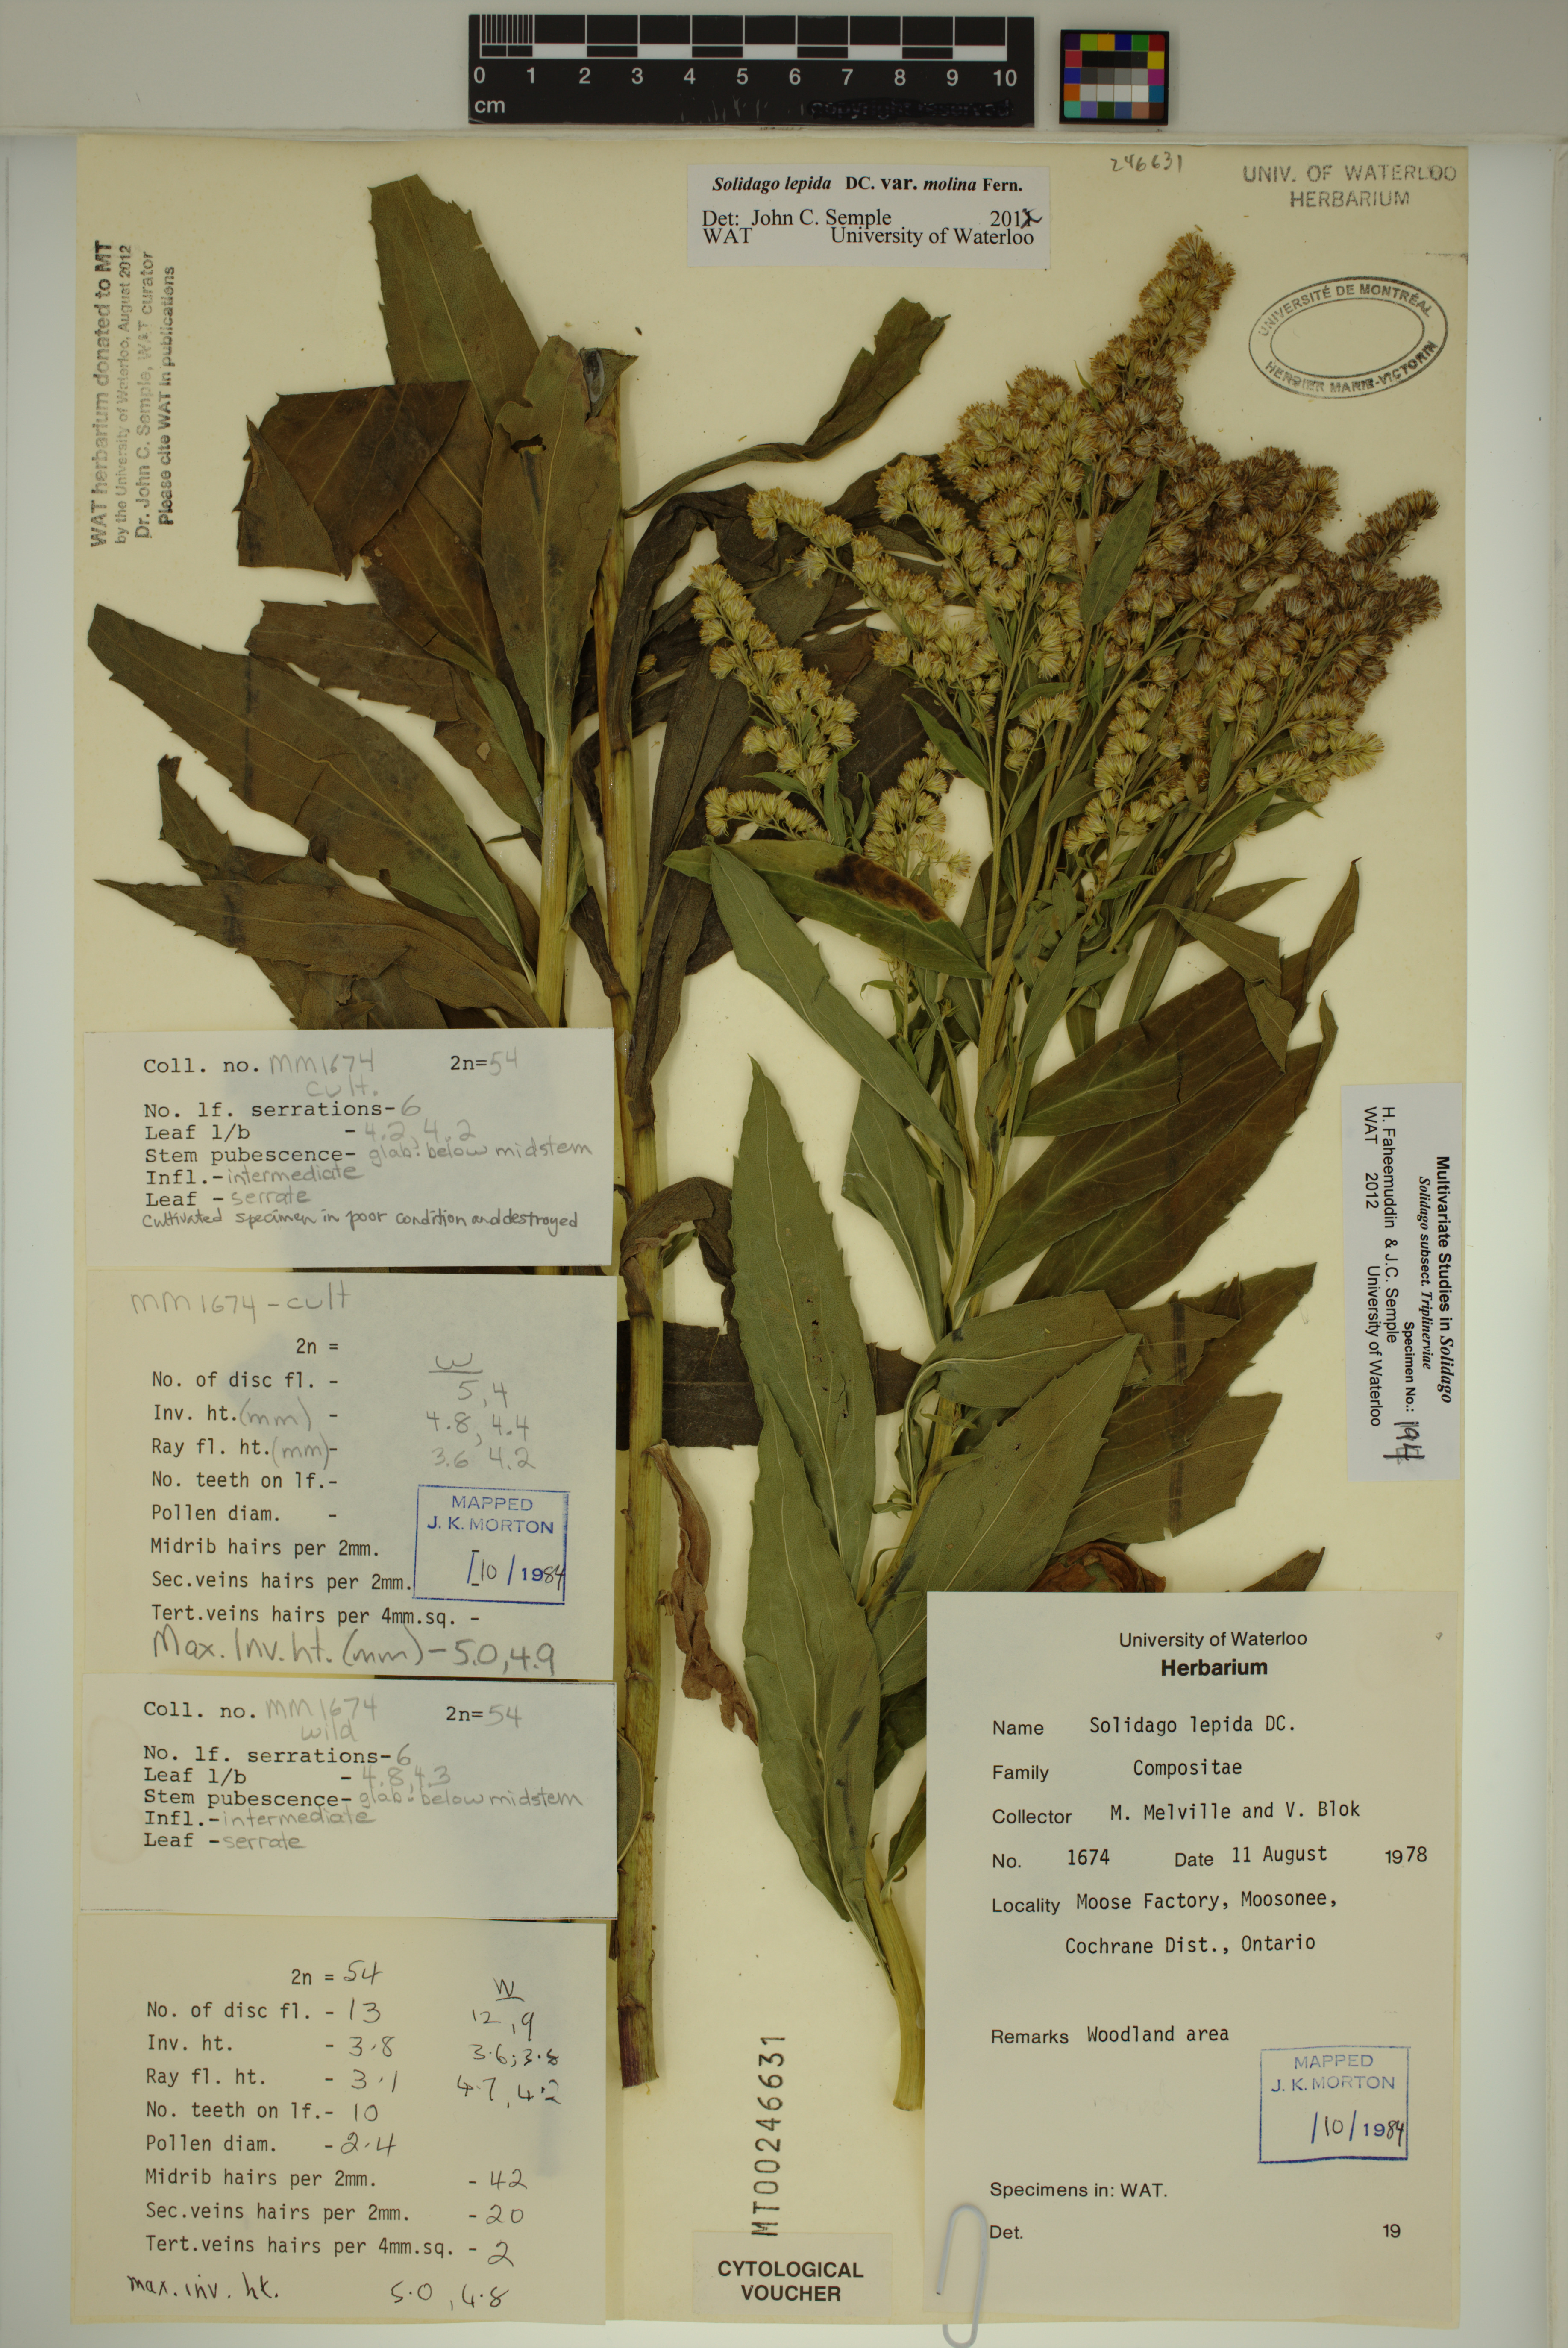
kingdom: Plantae
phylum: Tracheophyta
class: Magnoliopsida
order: Asterales
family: Asteraceae
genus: Solidago
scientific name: Solidago fallax
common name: Big-toothed canada goldenrod
